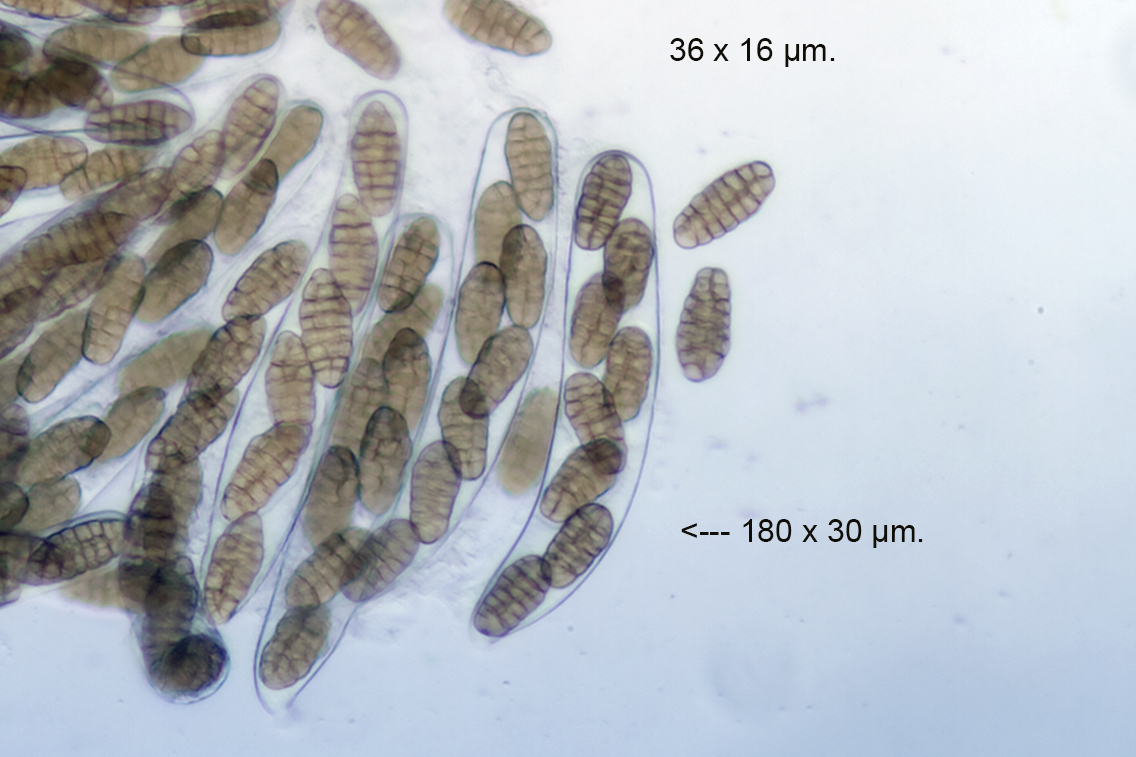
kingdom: Fungi
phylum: Ascomycota
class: Dothideomycetes
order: Pleosporales
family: Pleosporaceae
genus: Stemphylium
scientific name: Stemphylium vesicarium
